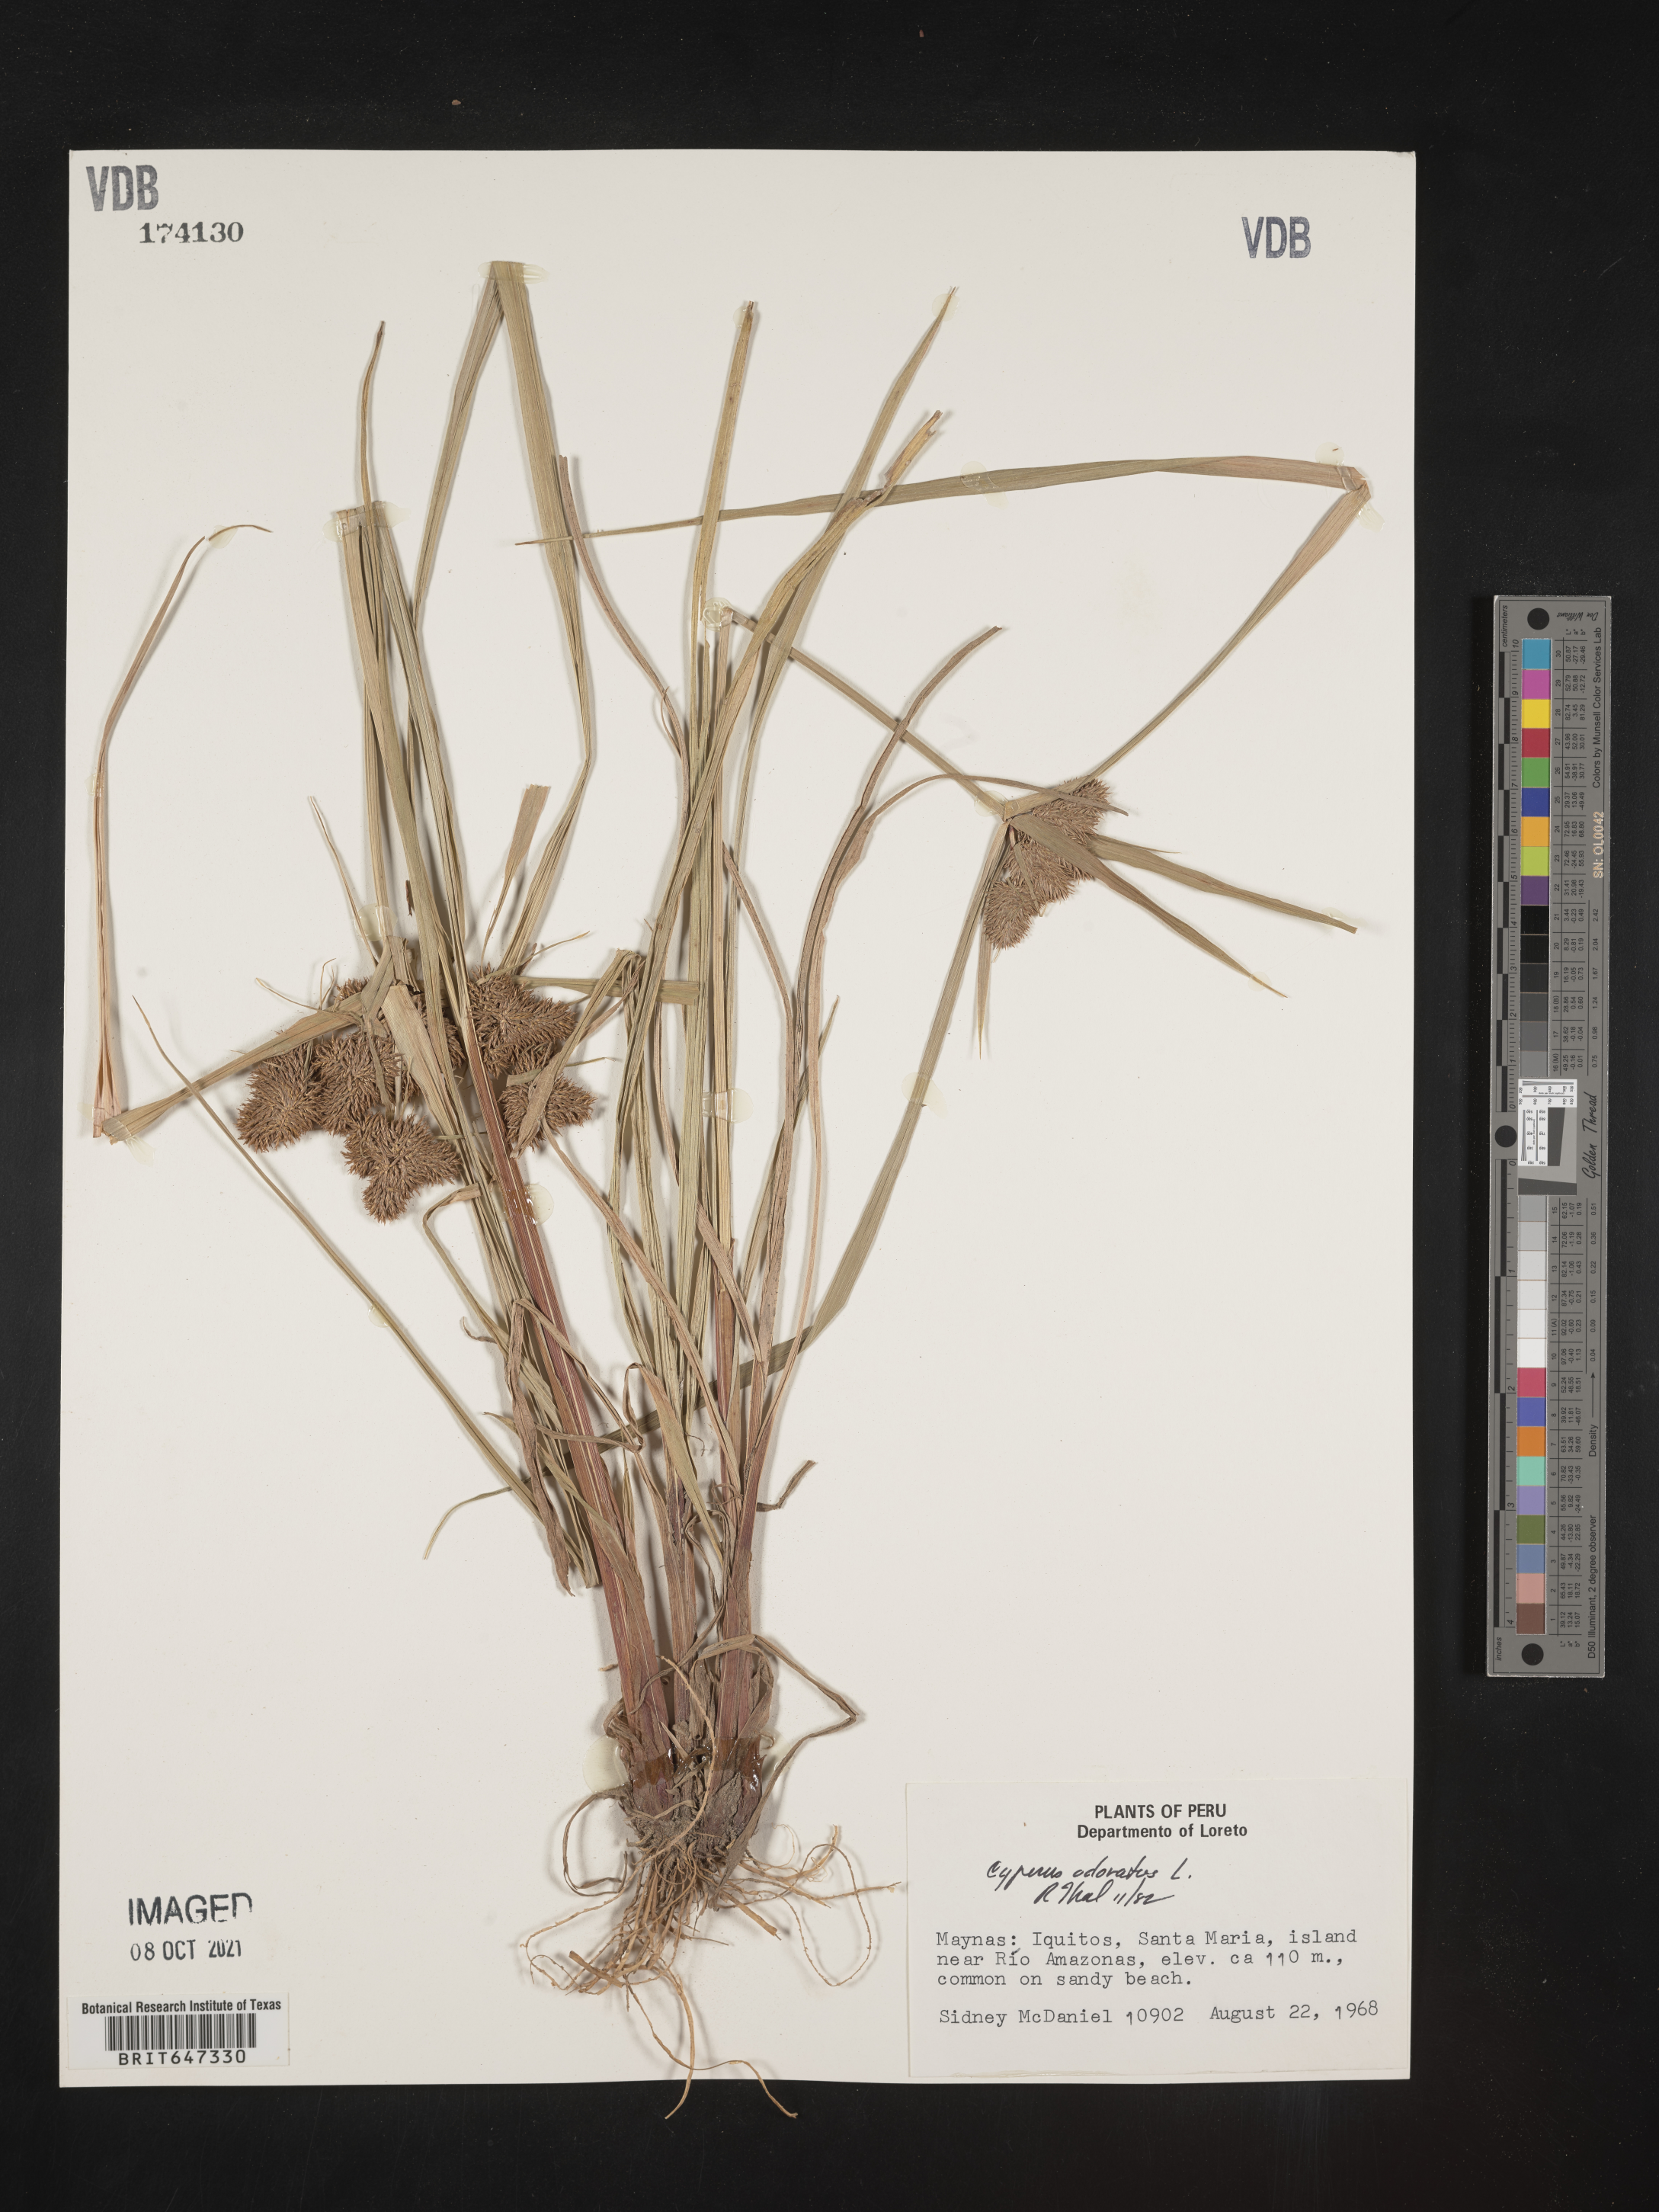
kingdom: Plantae
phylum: Tracheophyta
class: Liliopsida
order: Poales
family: Cyperaceae
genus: Cyperus
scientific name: Cyperus odoratus
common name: Fragrant flatsedge
